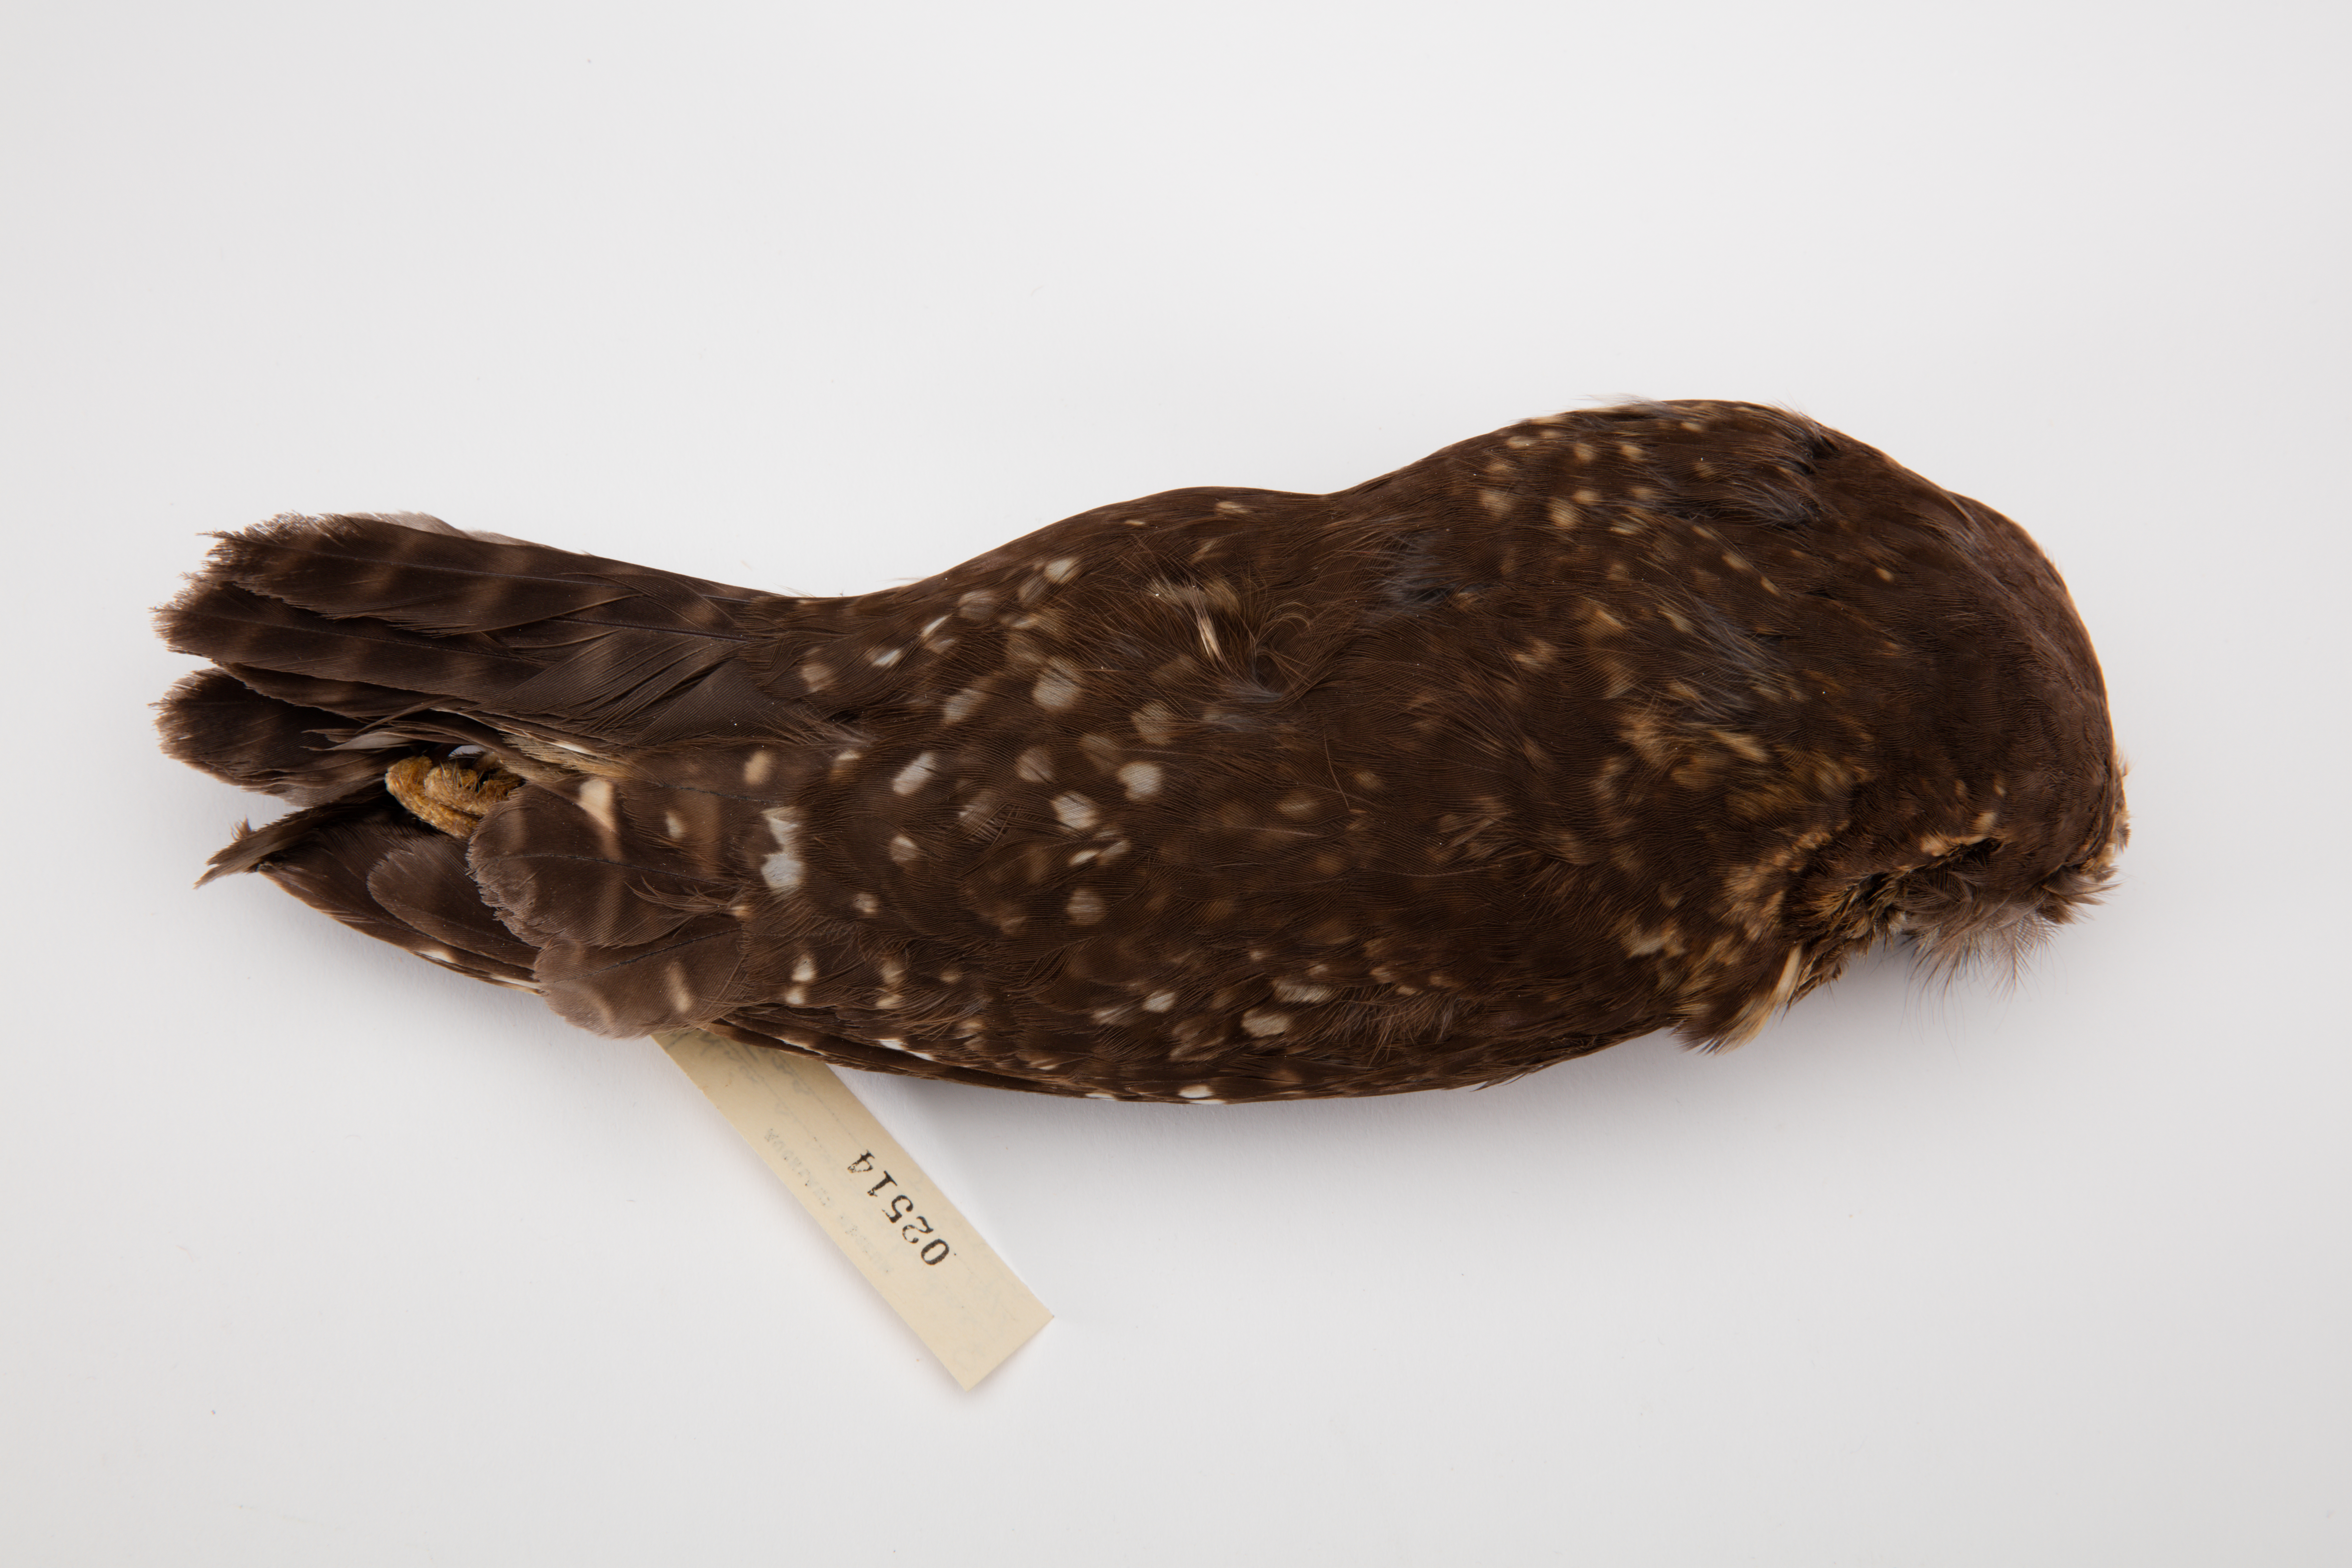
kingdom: Animalia
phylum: Chordata
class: Aves
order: Strigiformes
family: Strigidae
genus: Ninox
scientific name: Ninox novaeseelandiae
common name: Morepork
